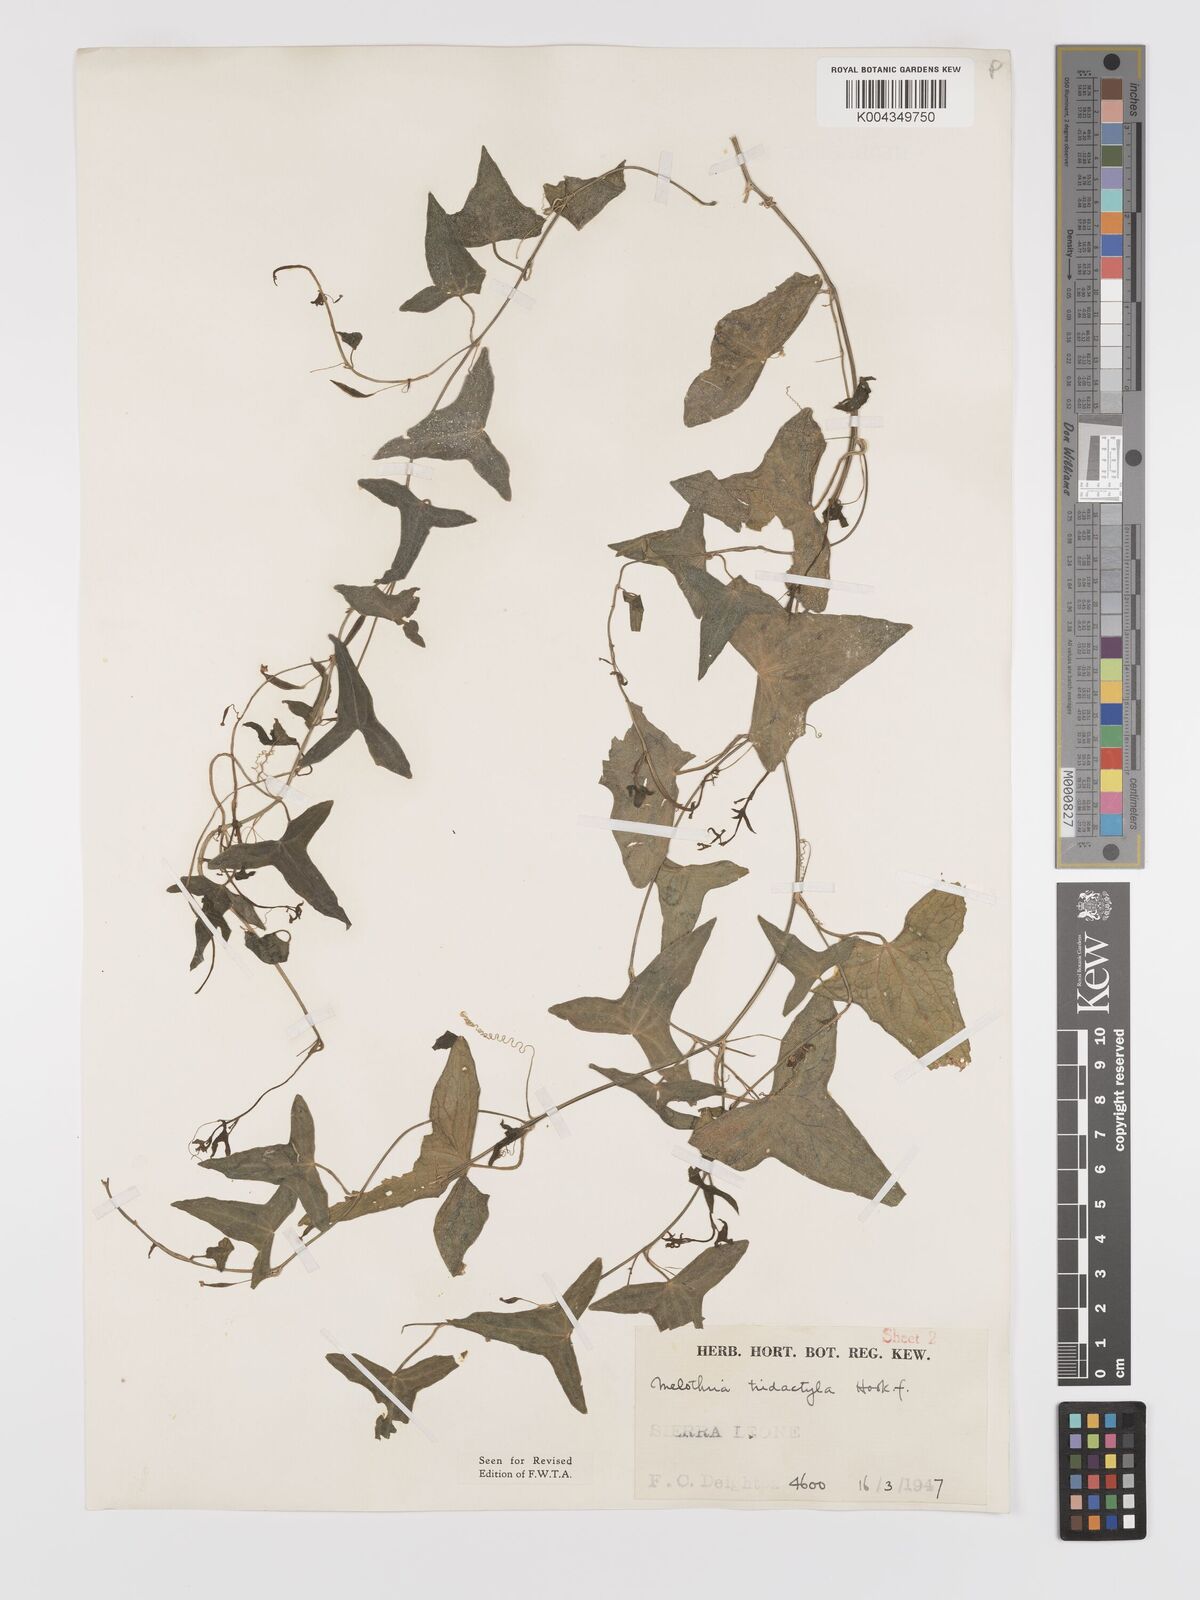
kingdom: Plantae
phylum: Tracheophyta
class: Magnoliopsida
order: Cucurbitales
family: Cucurbitaceae
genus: Zehneria
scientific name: Zehneria thwaitesii
